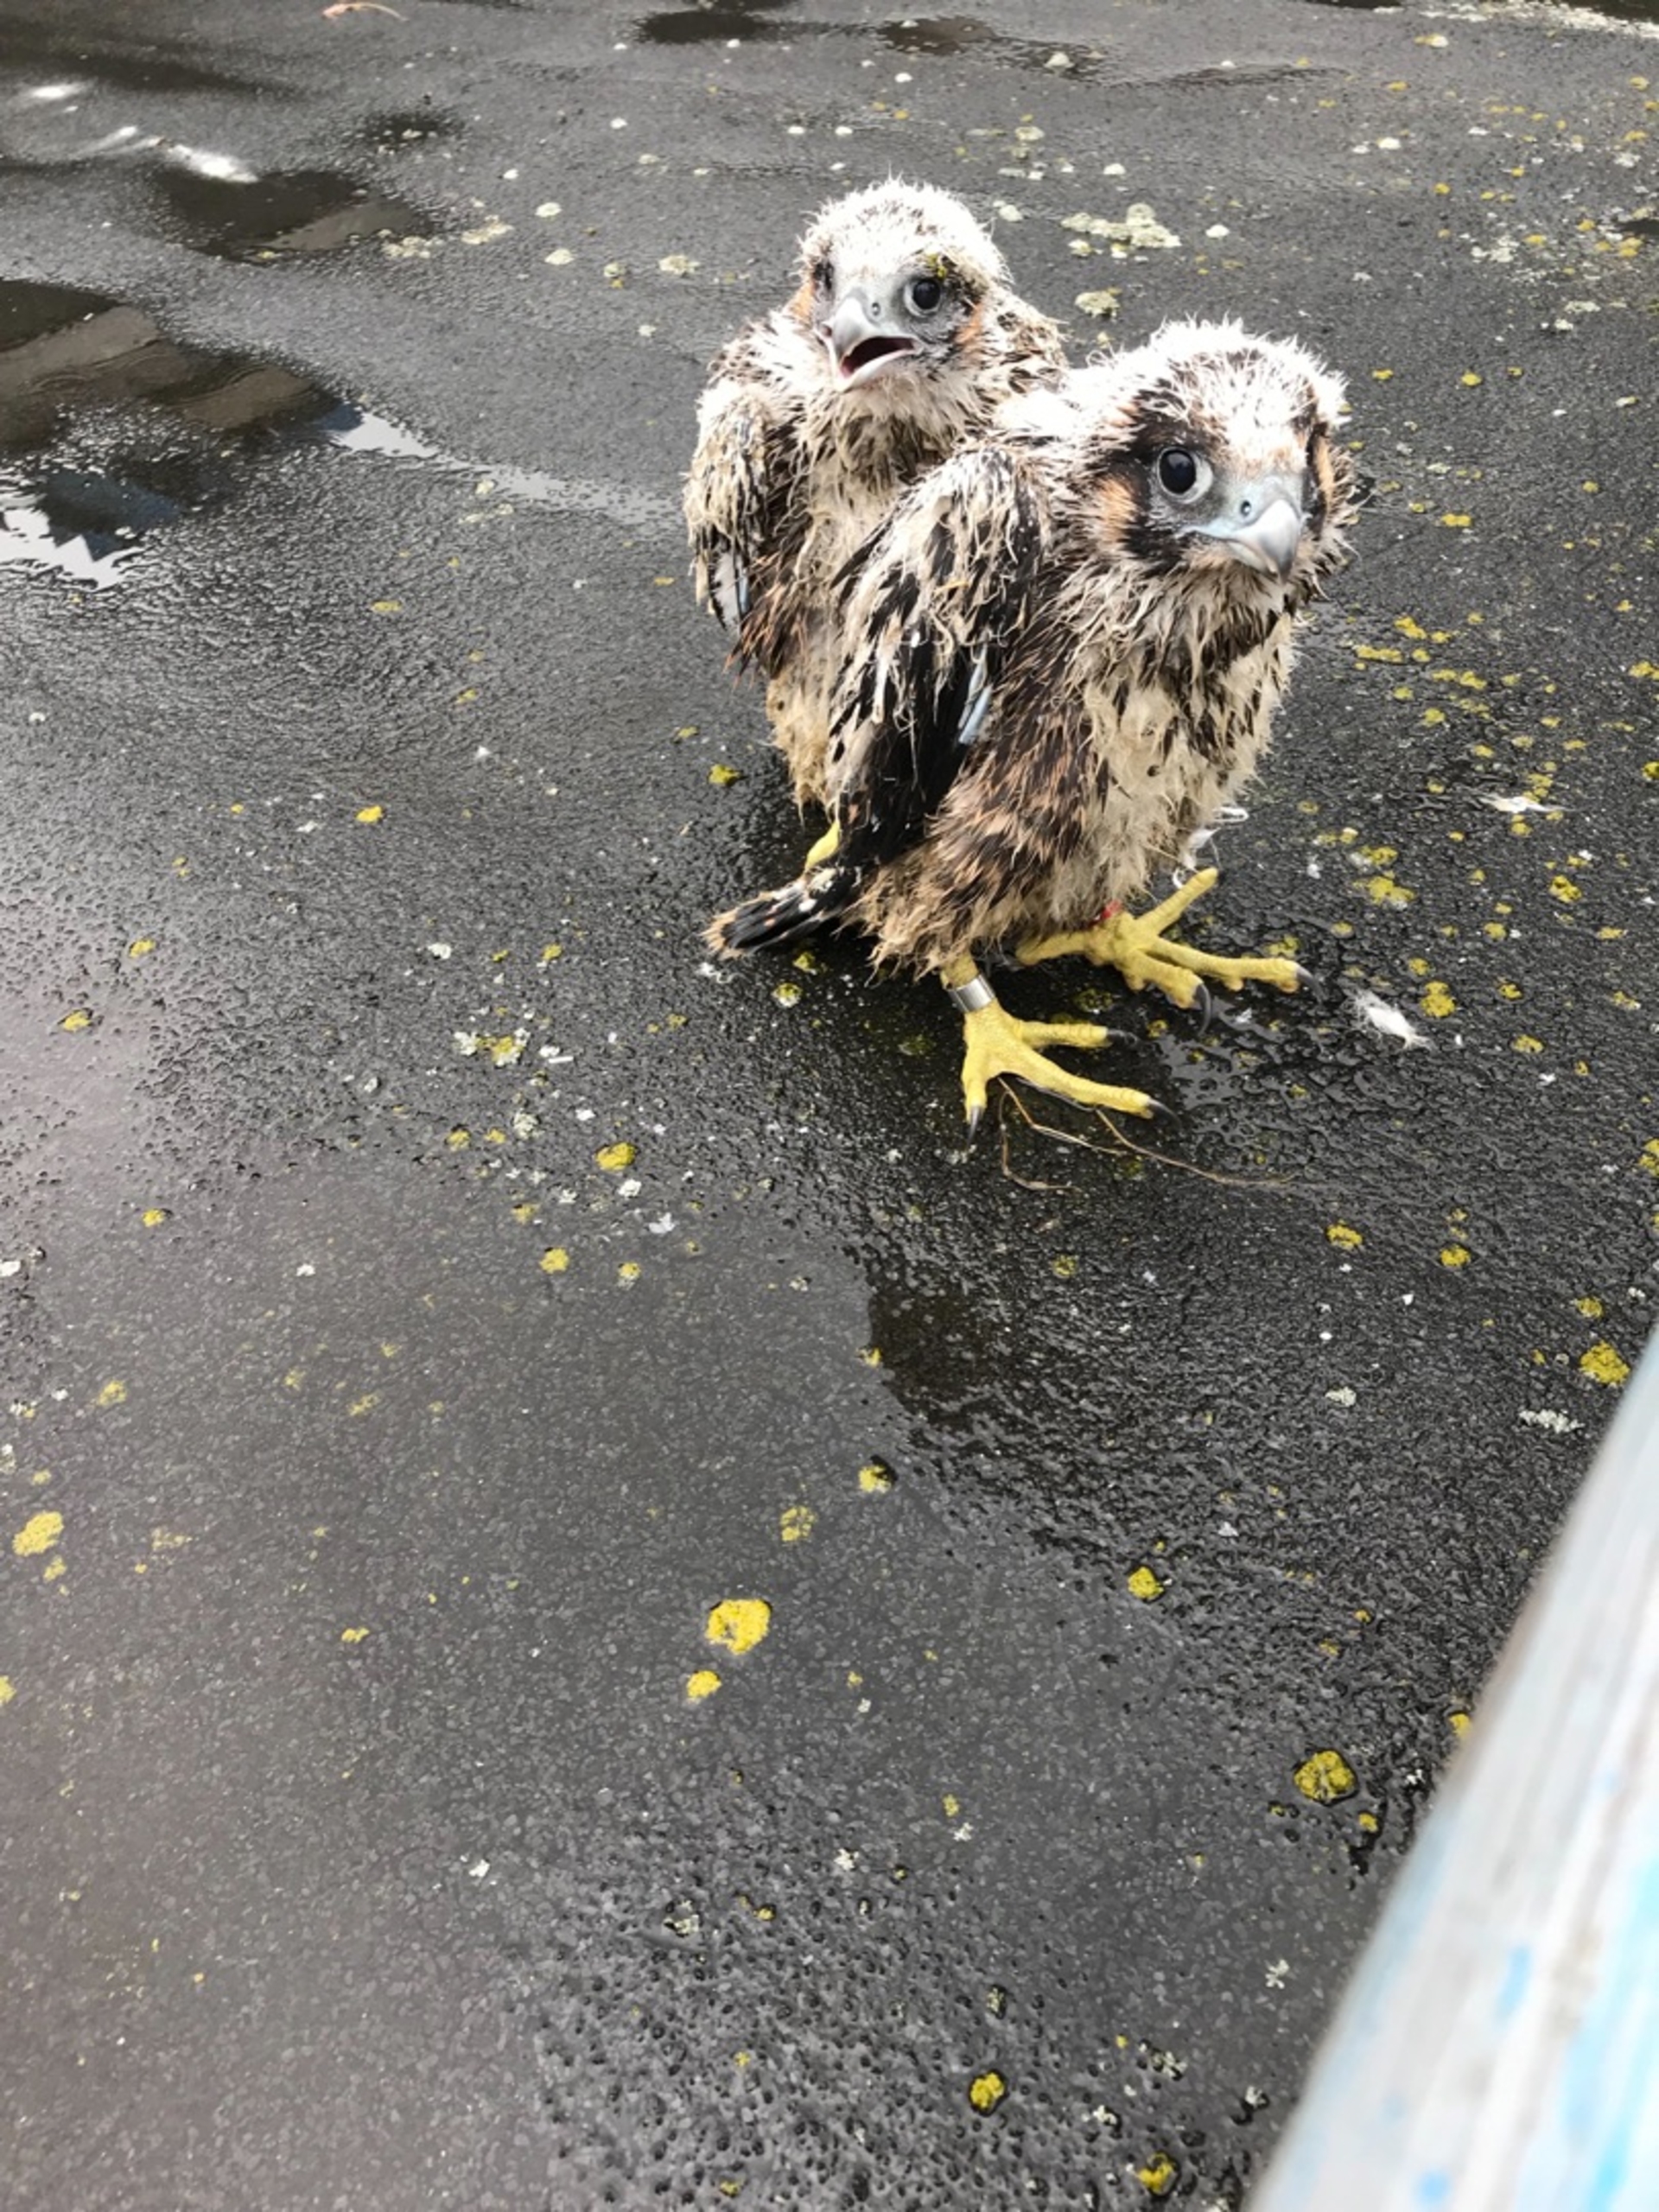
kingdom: Animalia
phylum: Chordata
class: Aves
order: Falconiformes
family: Falconidae
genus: Falco
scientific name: Falco peregrinus
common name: Vandrefalk
